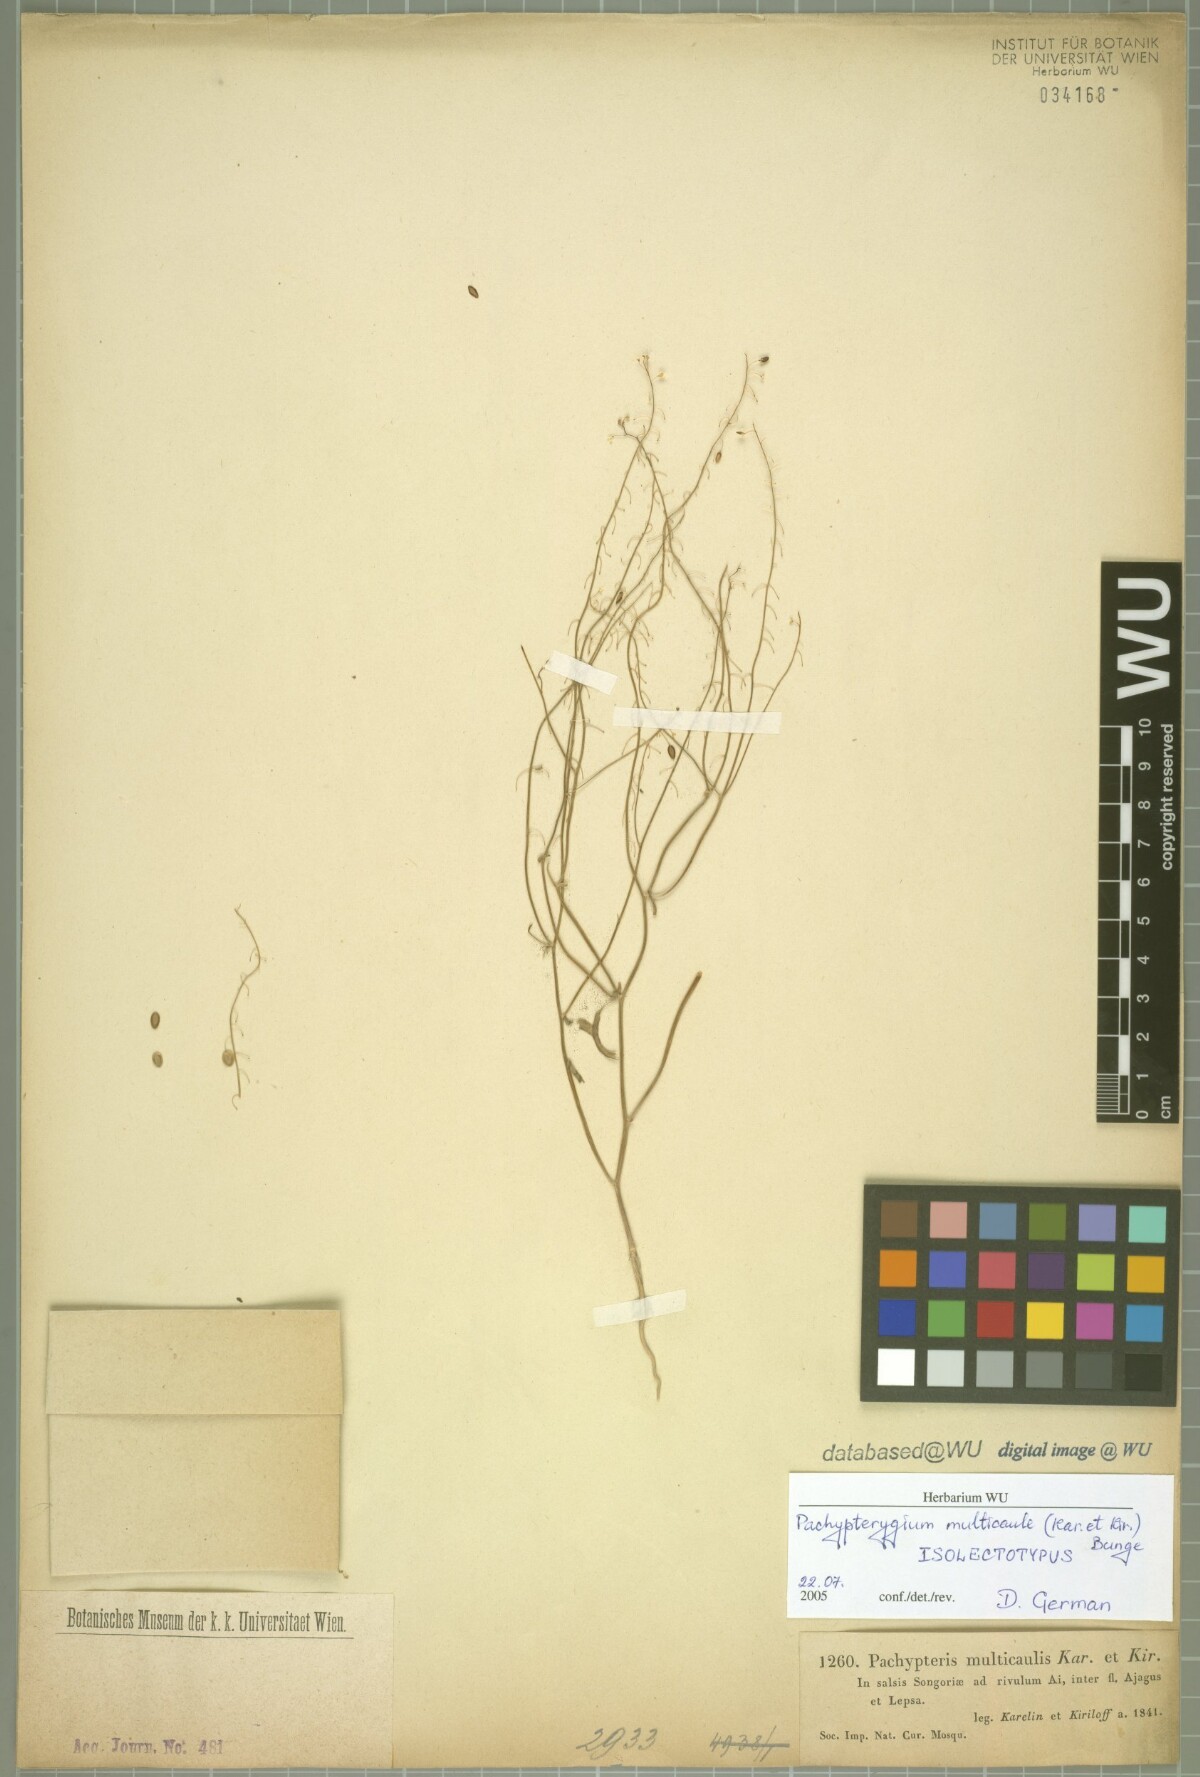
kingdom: Plantae
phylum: Tracheophyta
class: Magnoliopsida
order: Brassicales
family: Brassicaceae
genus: Isatis
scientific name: Isatis multicaulis
